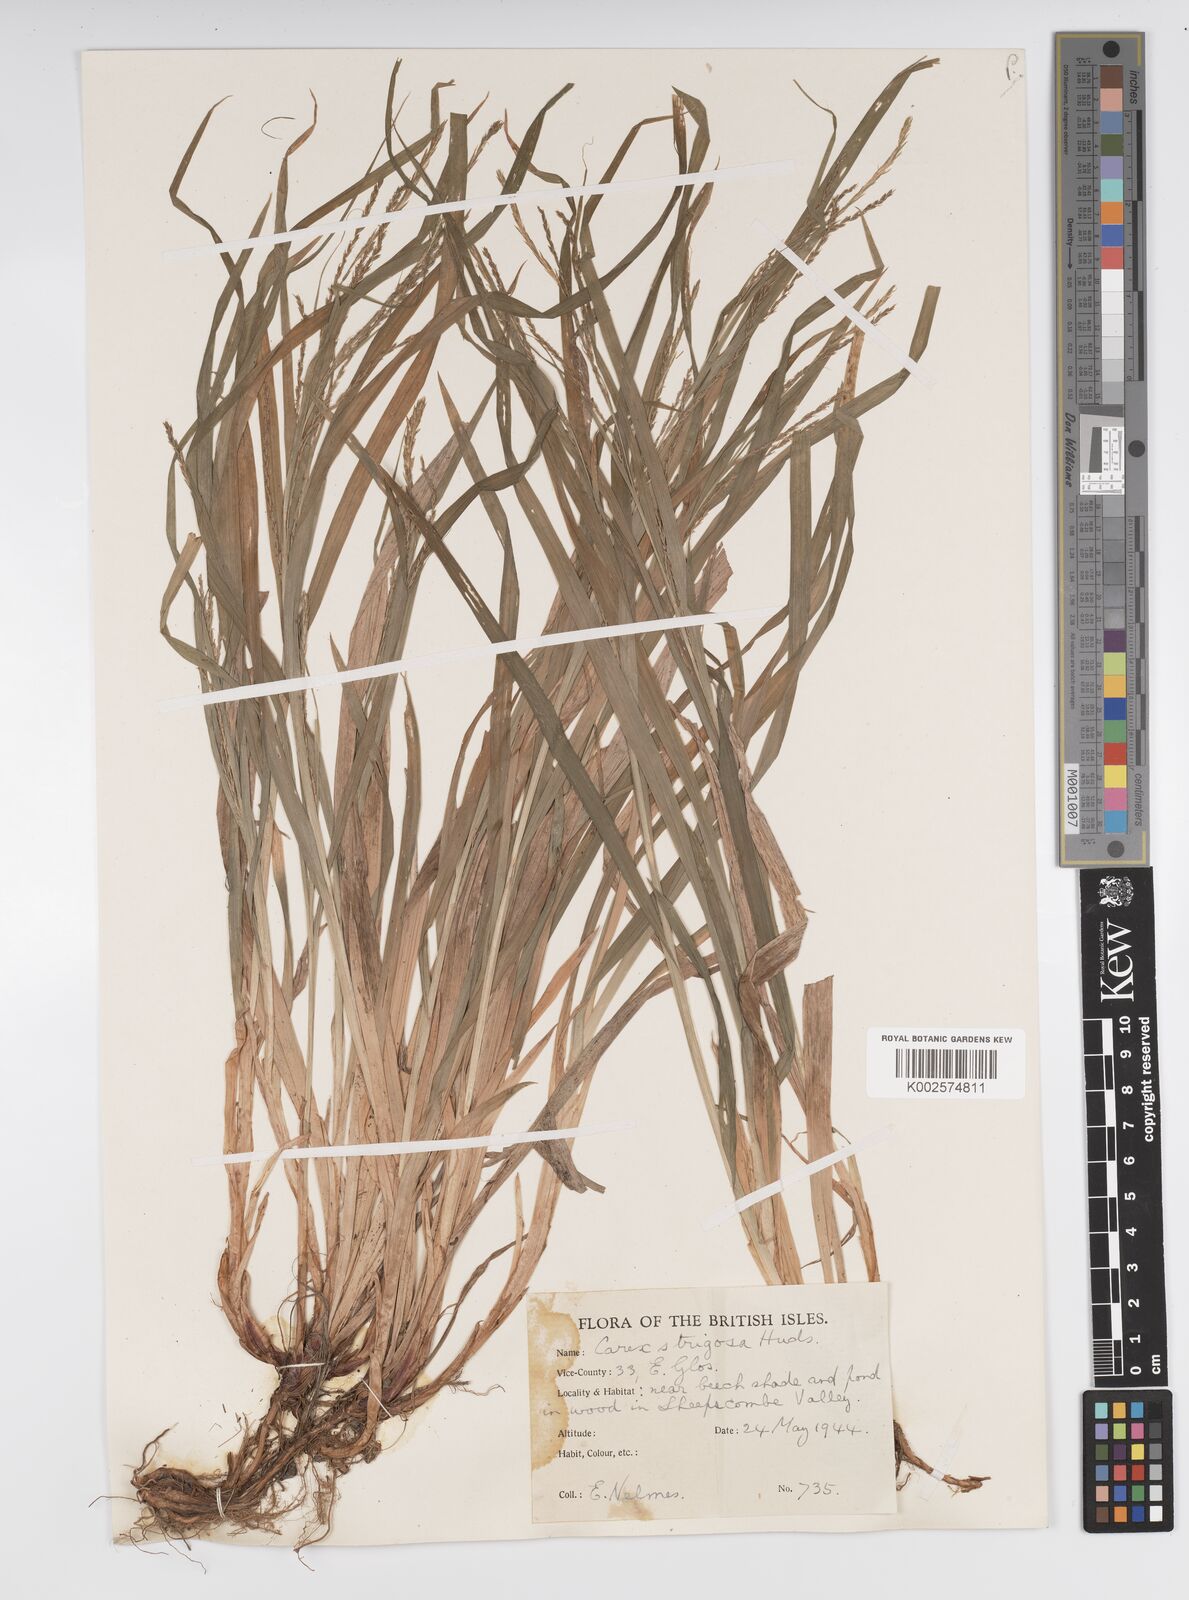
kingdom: Plantae
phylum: Tracheophyta
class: Liliopsida
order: Poales
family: Cyperaceae
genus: Carex
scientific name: Carex strigosa
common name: Thin-spiked wood-sedge
